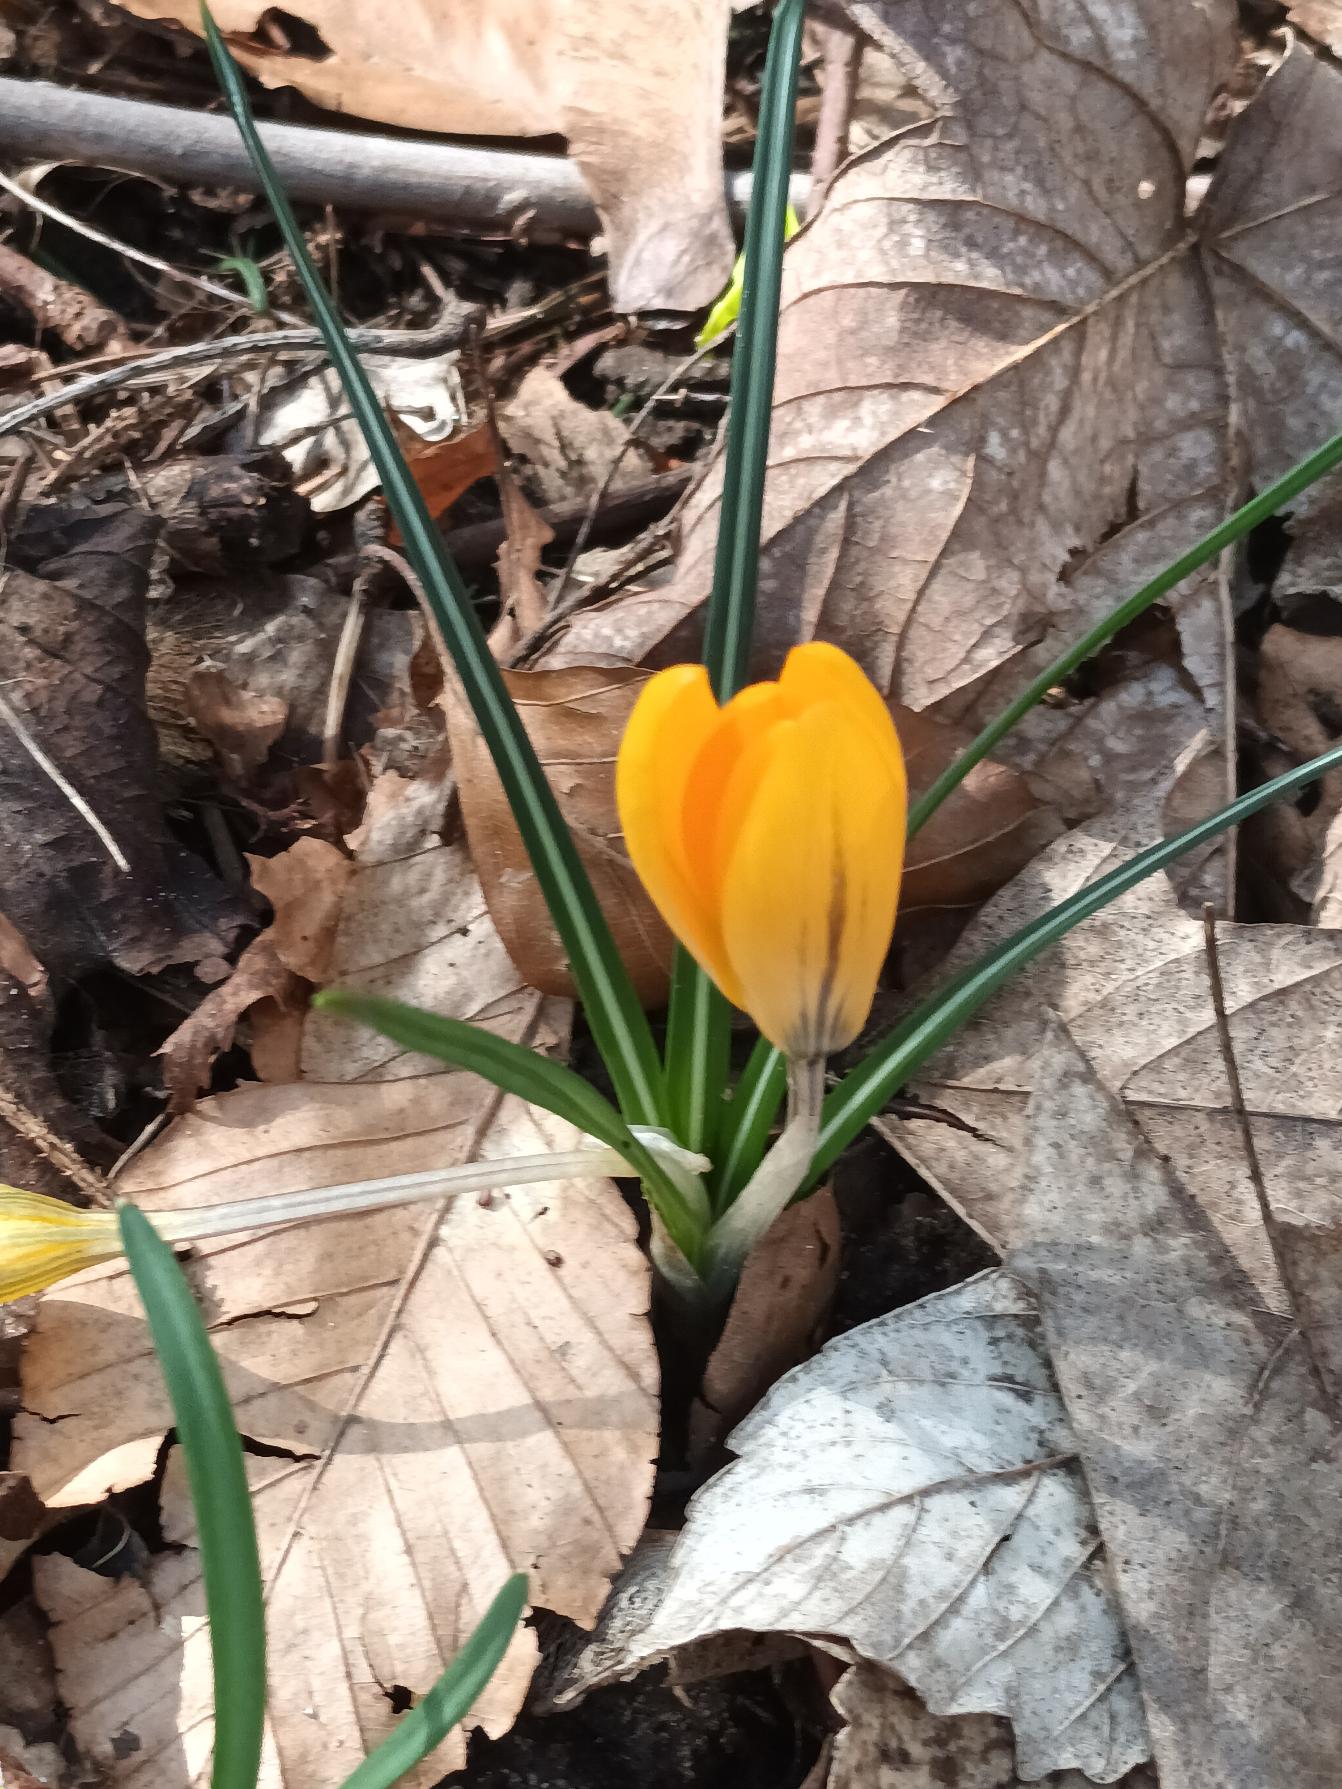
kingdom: Plantae
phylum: Tracheophyta
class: Liliopsida
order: Asparagales
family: Iridaceae
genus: Crocus
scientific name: Crocus luteus
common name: Gul krokus
